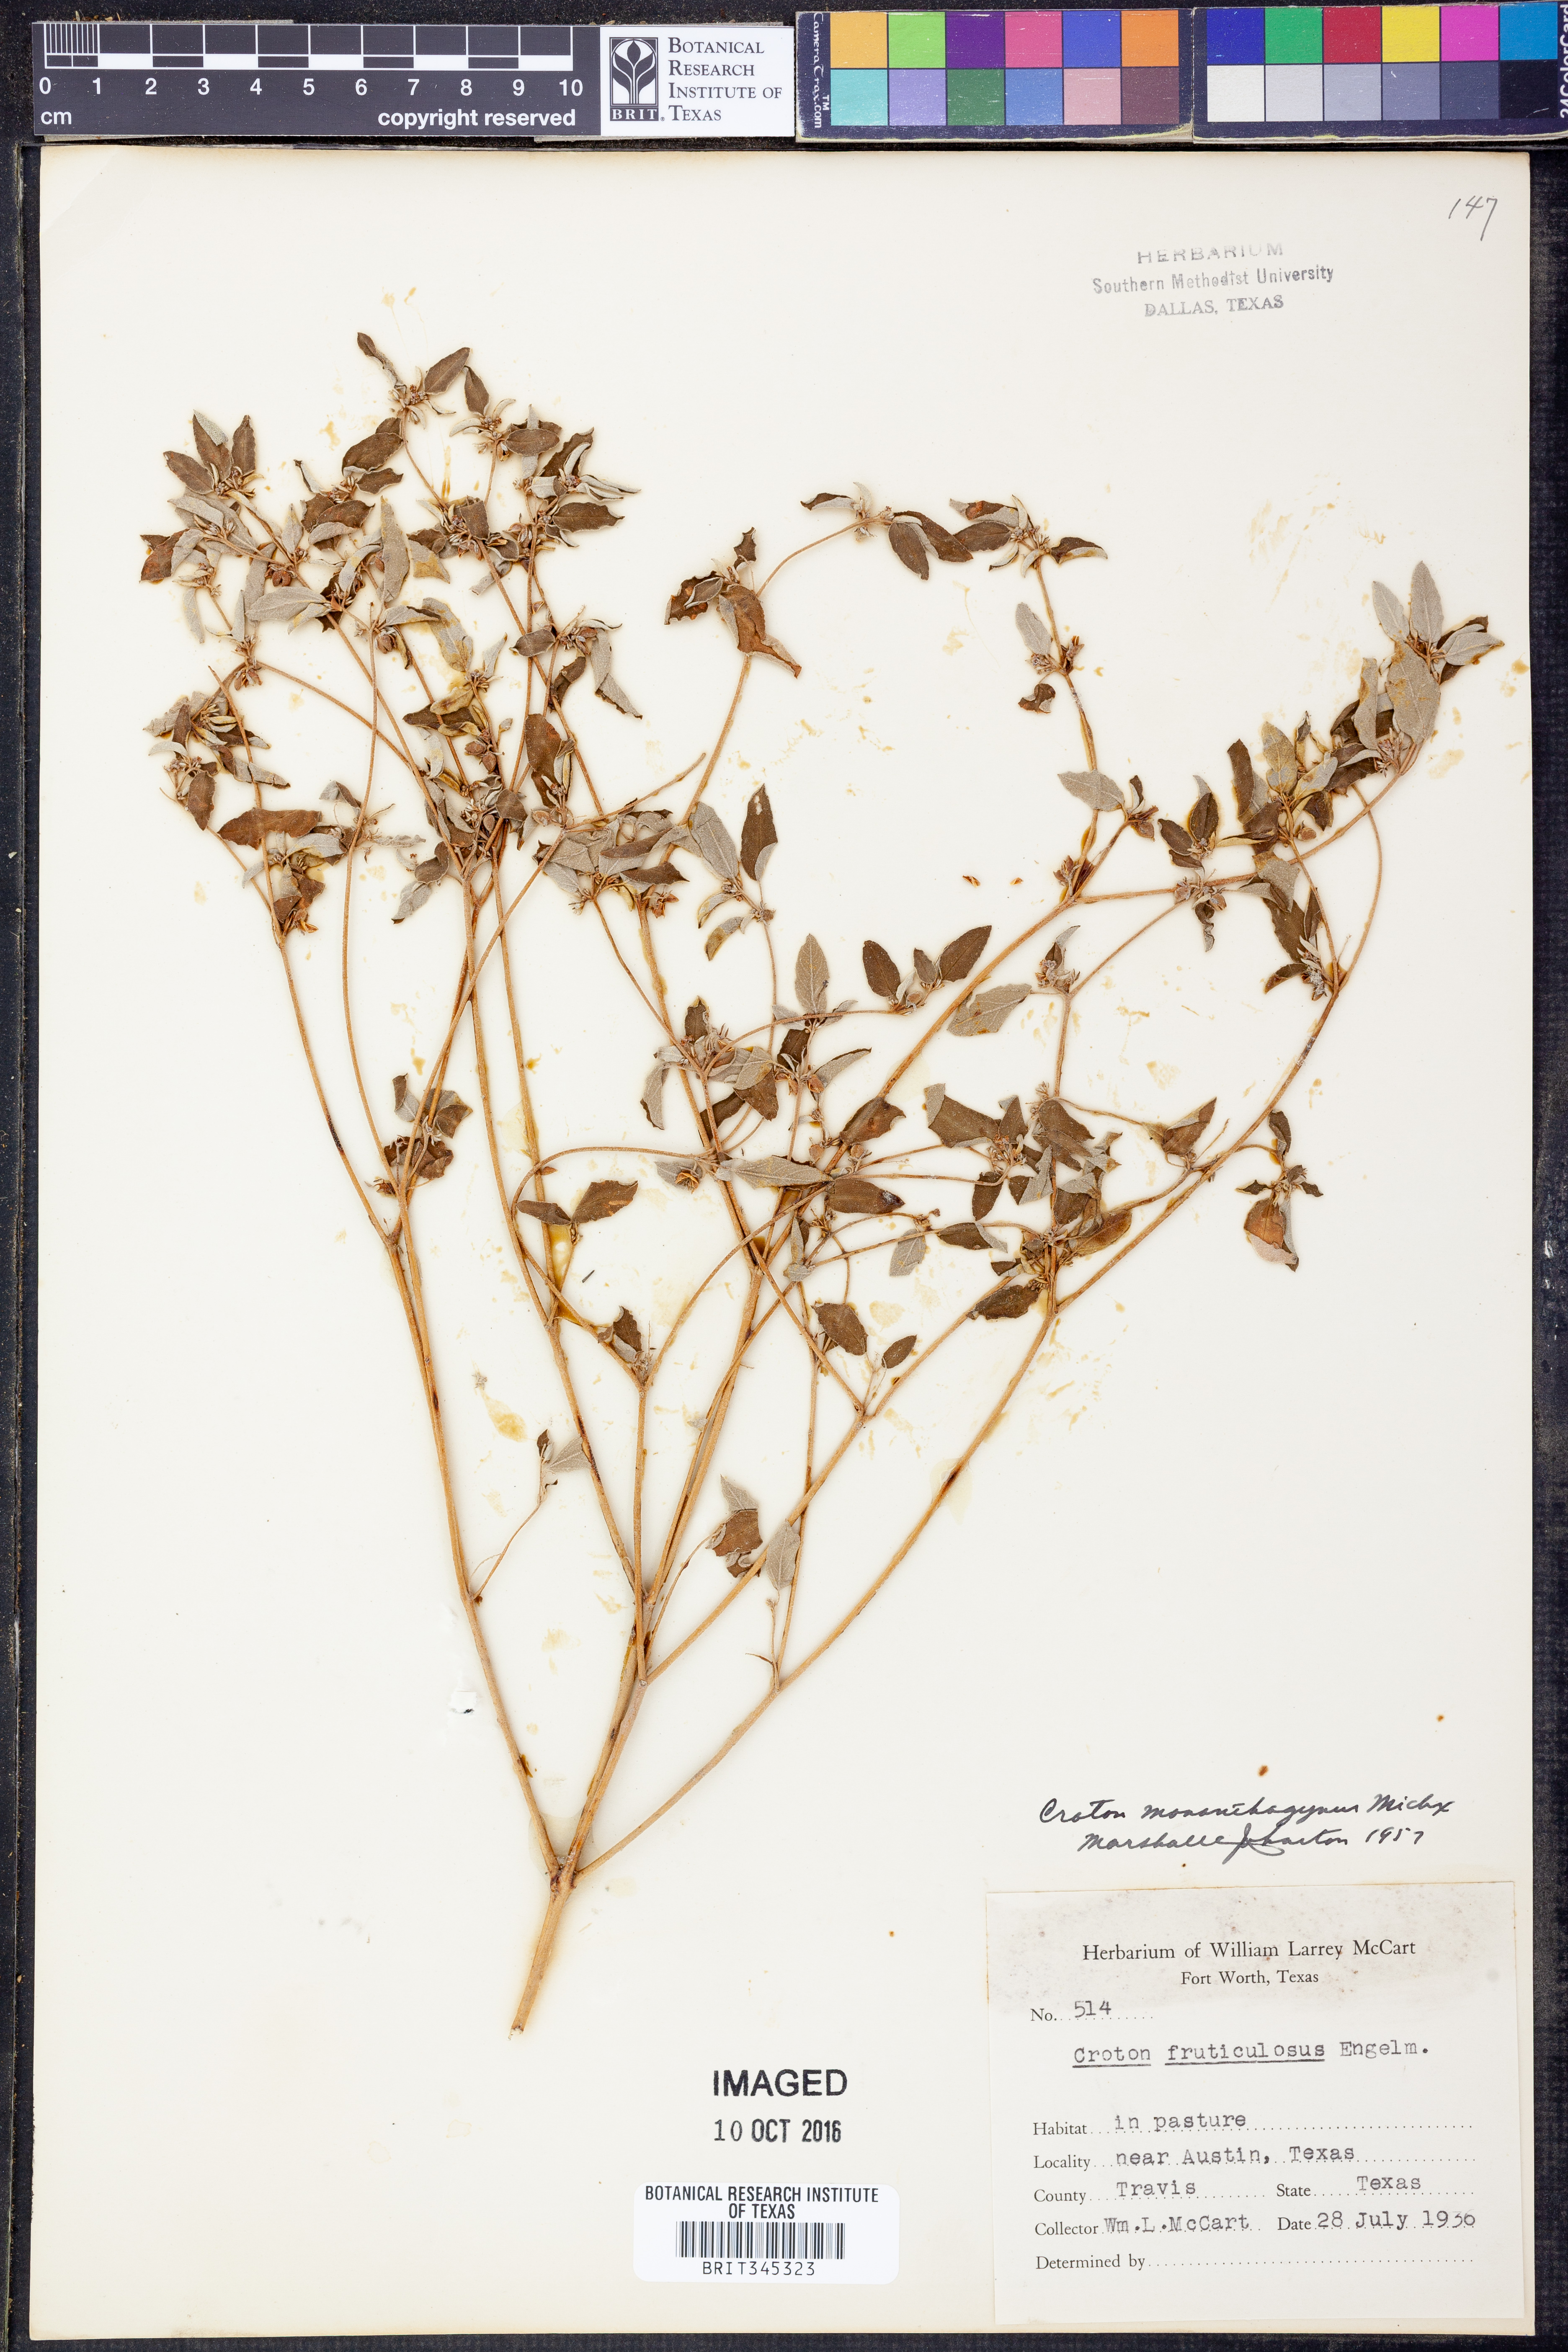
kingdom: Plantae
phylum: Tracheophyta
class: Magnoliopsida
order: Malpighiales
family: Euphorbiaceae
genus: Croton
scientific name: Croton monanthogynus
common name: One-seed croton
